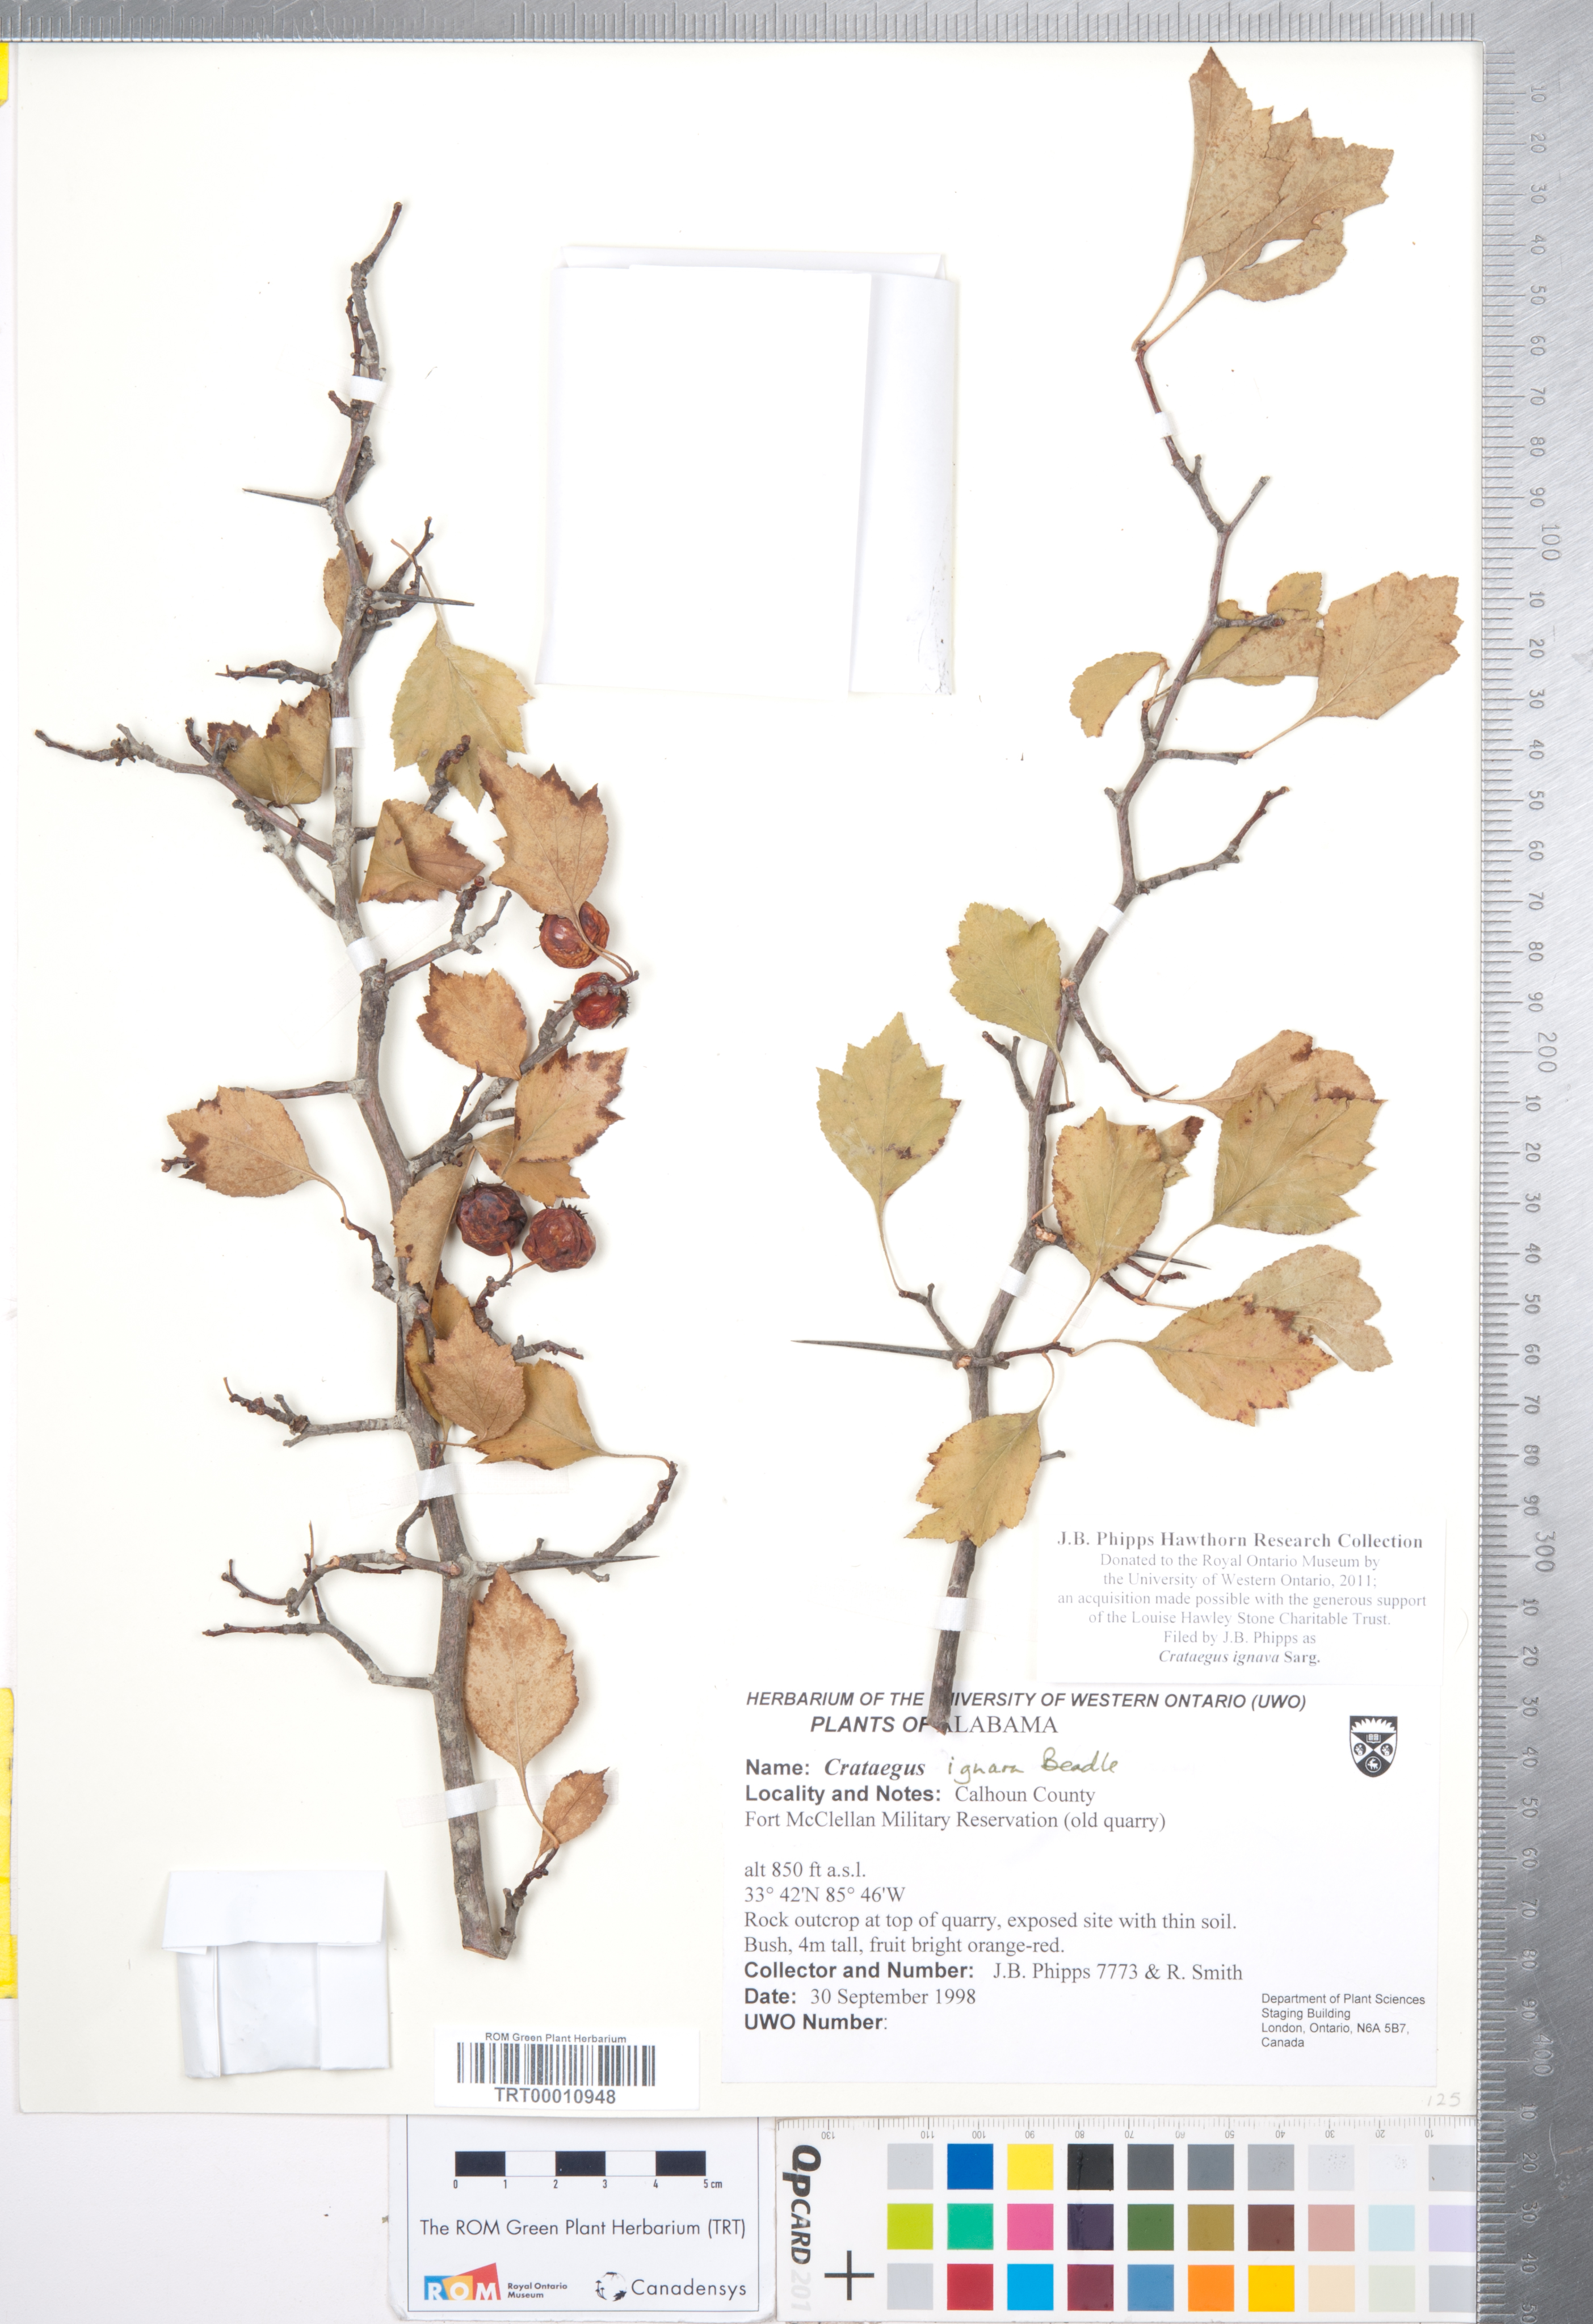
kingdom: Plantae
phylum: Tracheophyta
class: Magnoliopsida
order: Rosales
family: Rosaceae
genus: Crataegus
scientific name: Crataegus ignava
